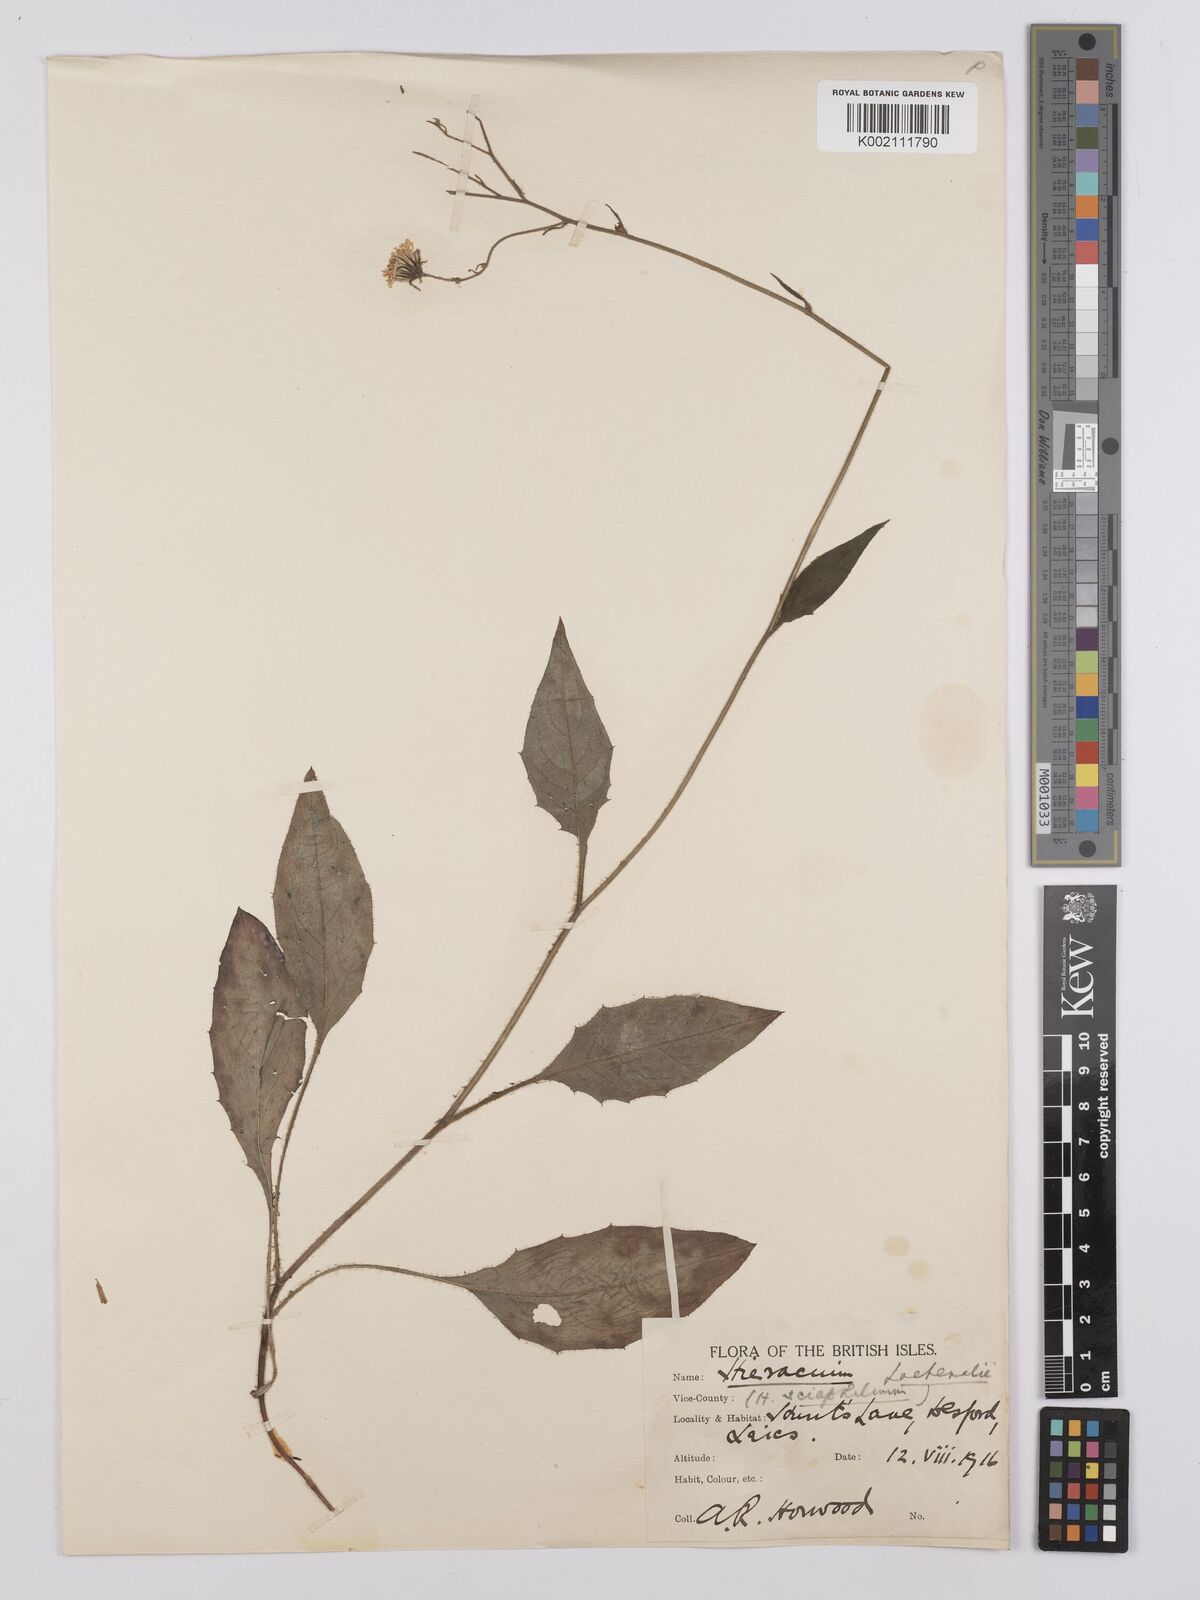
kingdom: Plantae
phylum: Tracheophyta
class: Magnoliopsida
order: Asterales
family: Asteraceae
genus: Hieracium
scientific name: Hieracium lachenalii
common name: Common hawkweed
